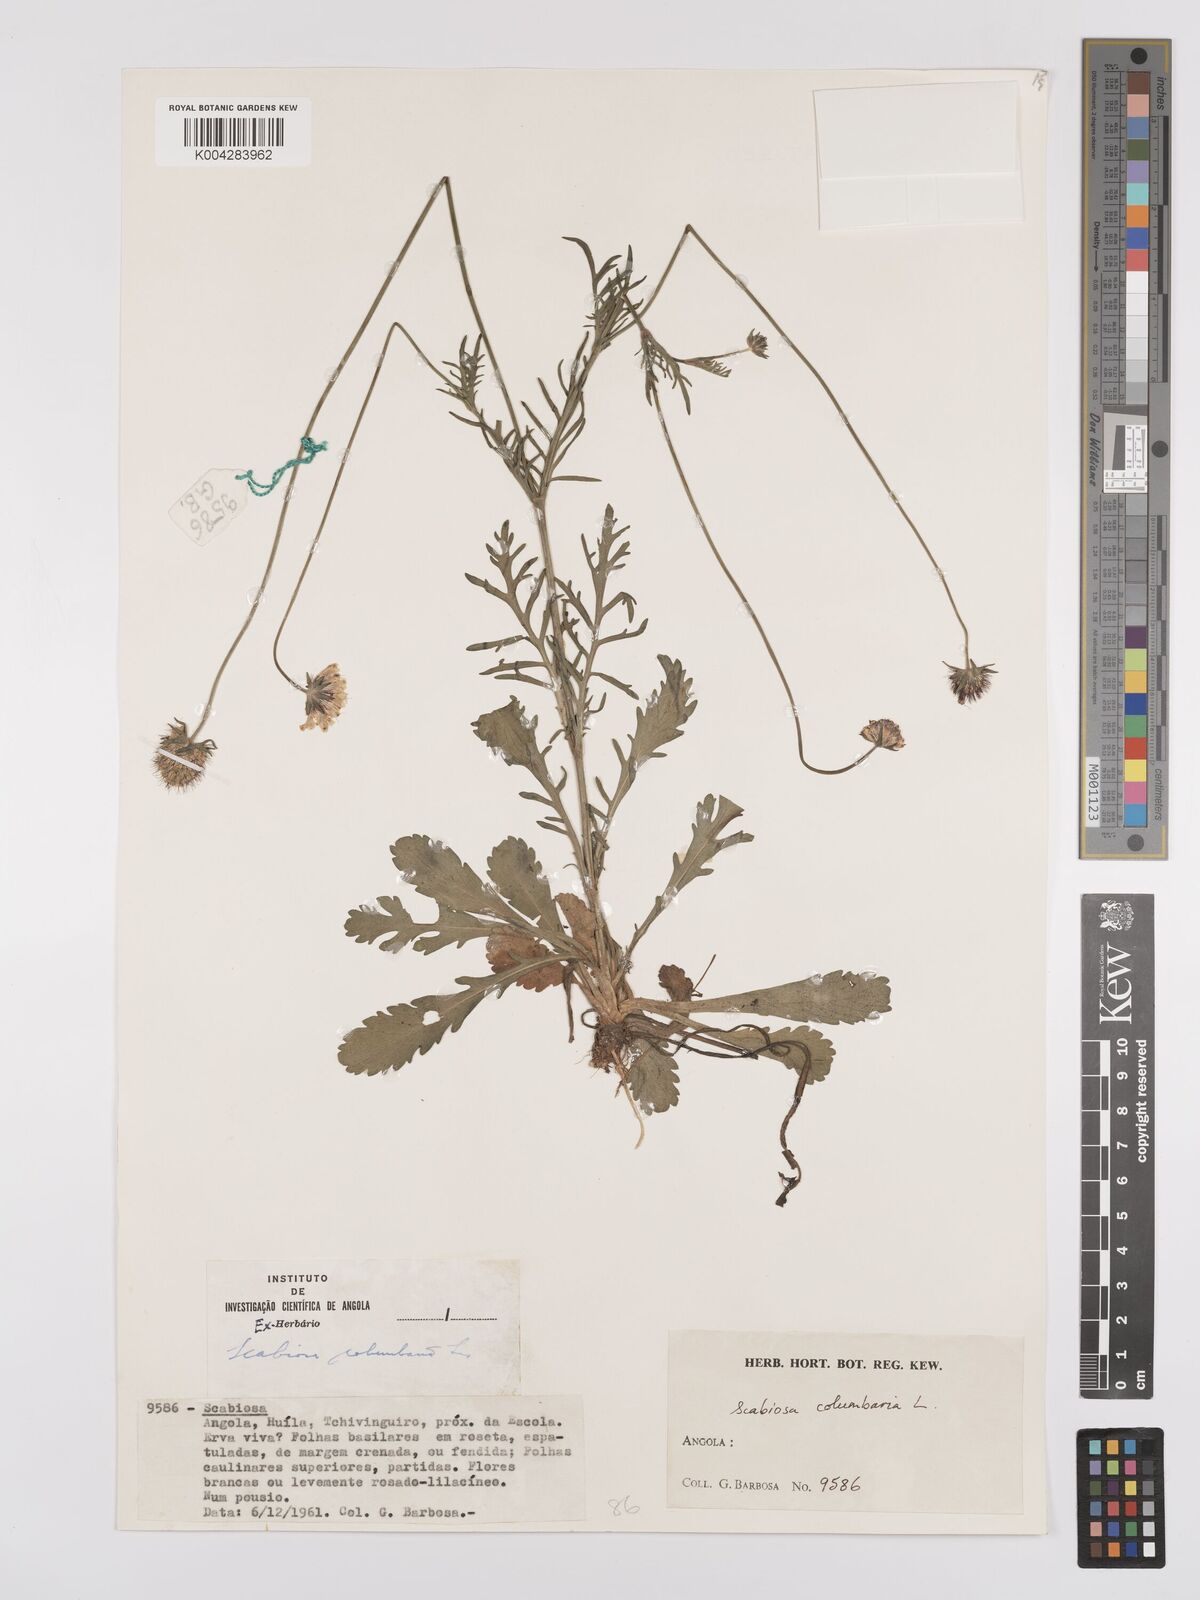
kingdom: Plantae
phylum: Tracheophyta
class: Magnoliopsida
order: Dipsacales
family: Caprifoliaceae
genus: Scabiosa
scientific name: Scabiosa columbaria
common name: Small scabious
